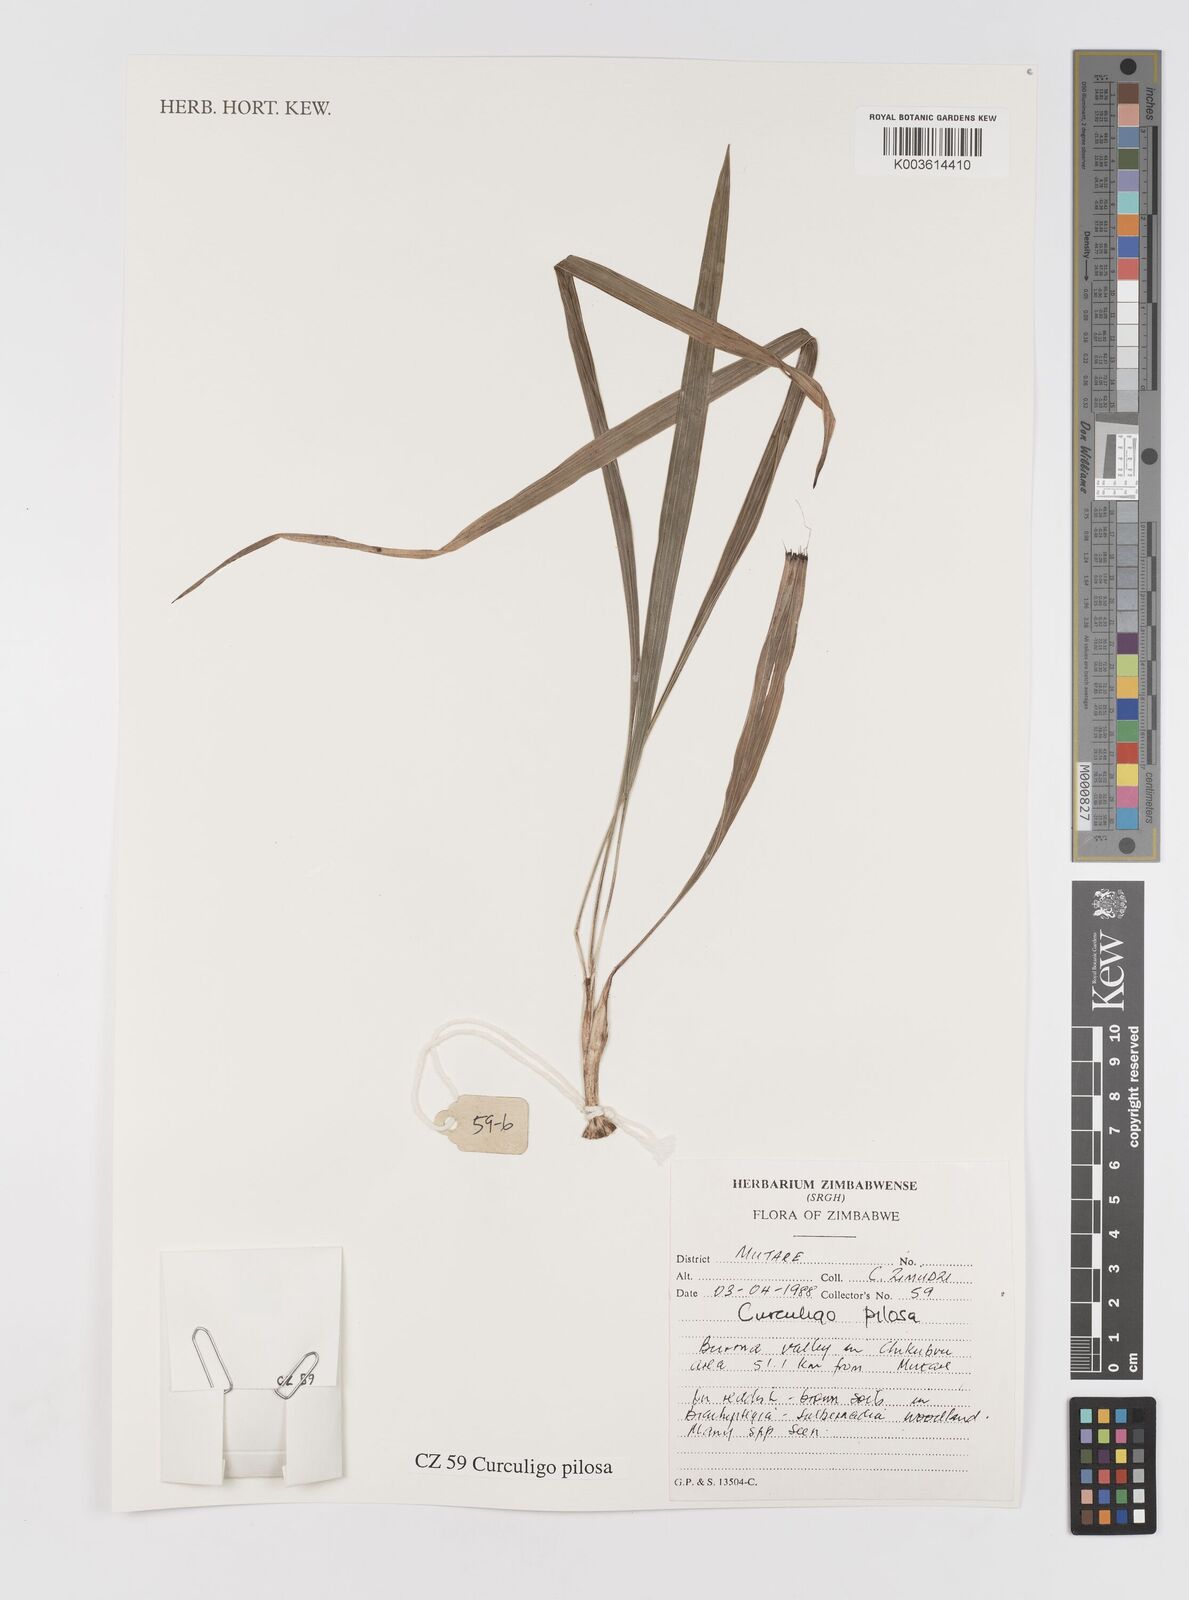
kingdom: Plantae
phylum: Tracheophyta
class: Liliopsida
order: Asparagales
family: Hypoxidaceae
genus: Curculigo
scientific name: Curculigo pilosa
